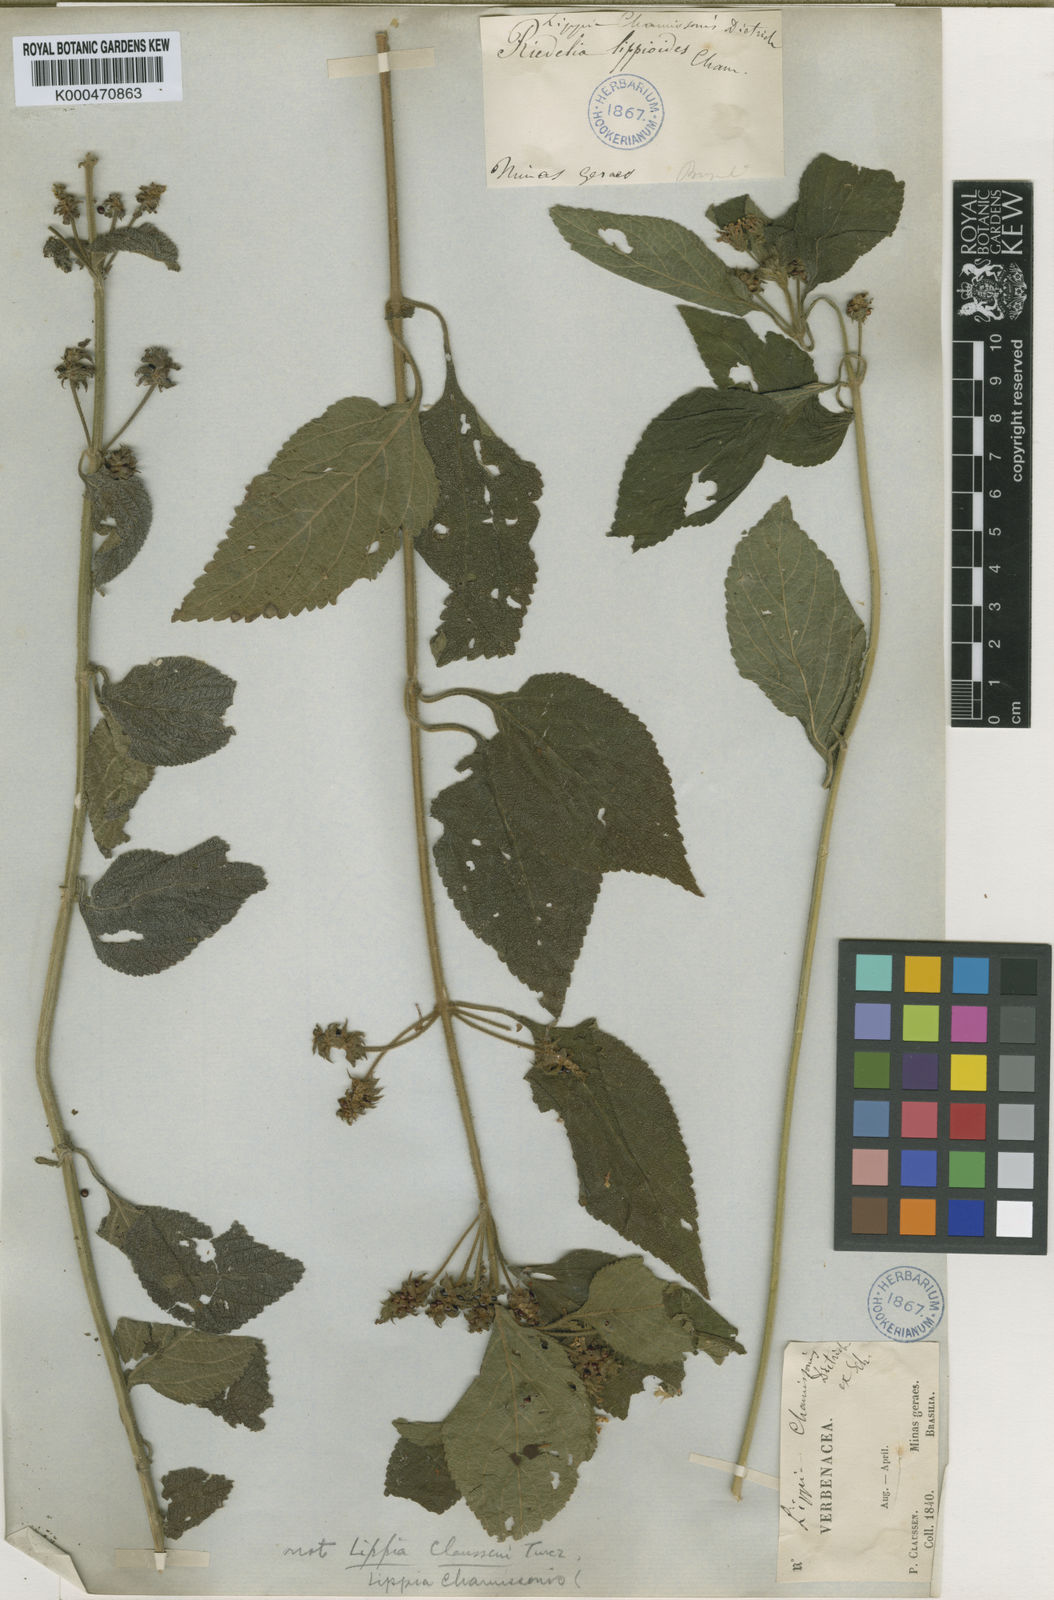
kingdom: Plantae
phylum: Tracheophyta
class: Magnoliopsida
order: Lamiales
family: Verbenaceae
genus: Lippia
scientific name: Lippia lupulina
